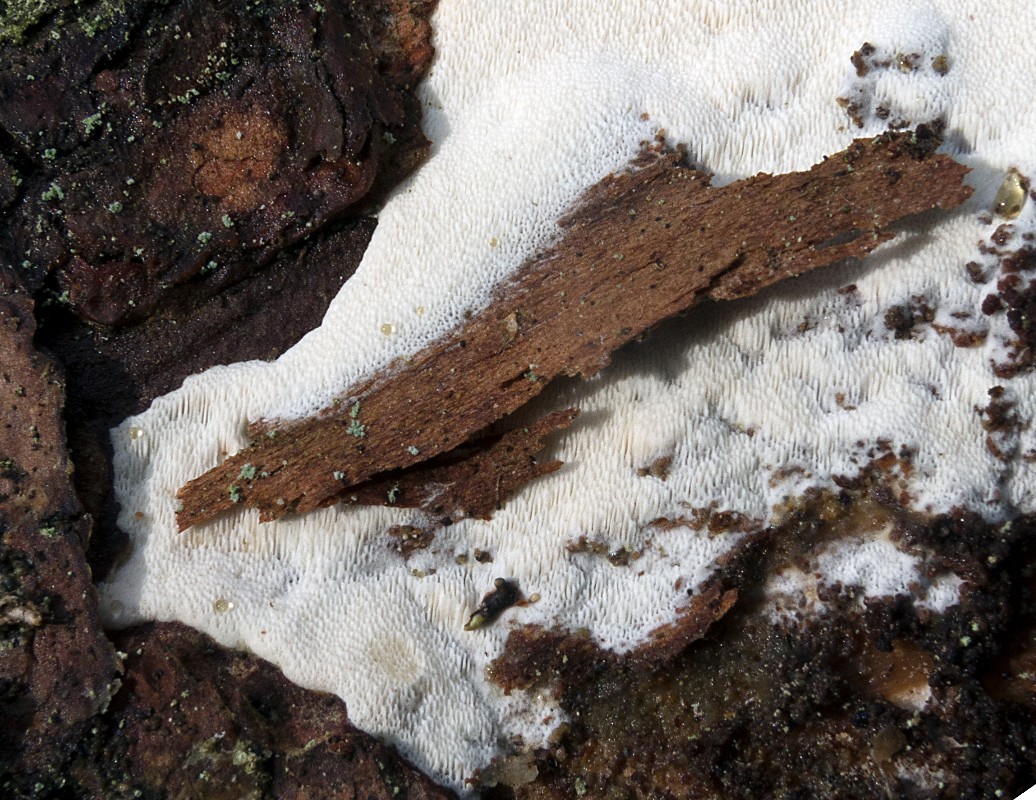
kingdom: Fungi
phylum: Basidiomycota
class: Agaricomycetes
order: Hymenochaetales
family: Rickenellaceae
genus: Sidera
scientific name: Sidera vulgaris
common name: fin flødeporesvamp
